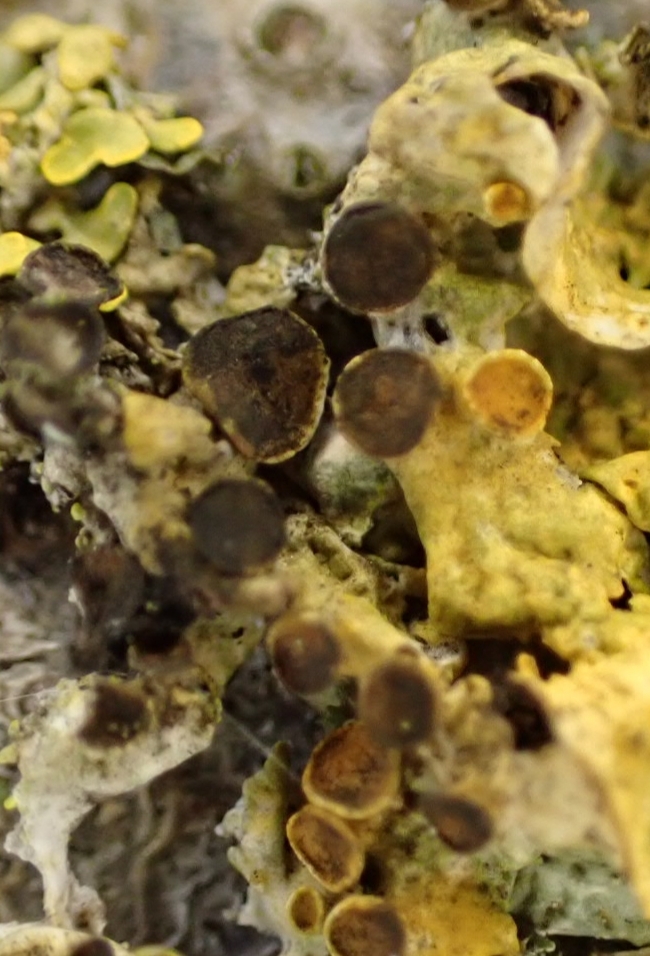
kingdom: Fungi
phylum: Ascomycota
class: Dothideomycetes
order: Mycosphaerellales
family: Teratosphaeriaceae
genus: Xanthoriicola
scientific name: Xanthoriicola physciae
